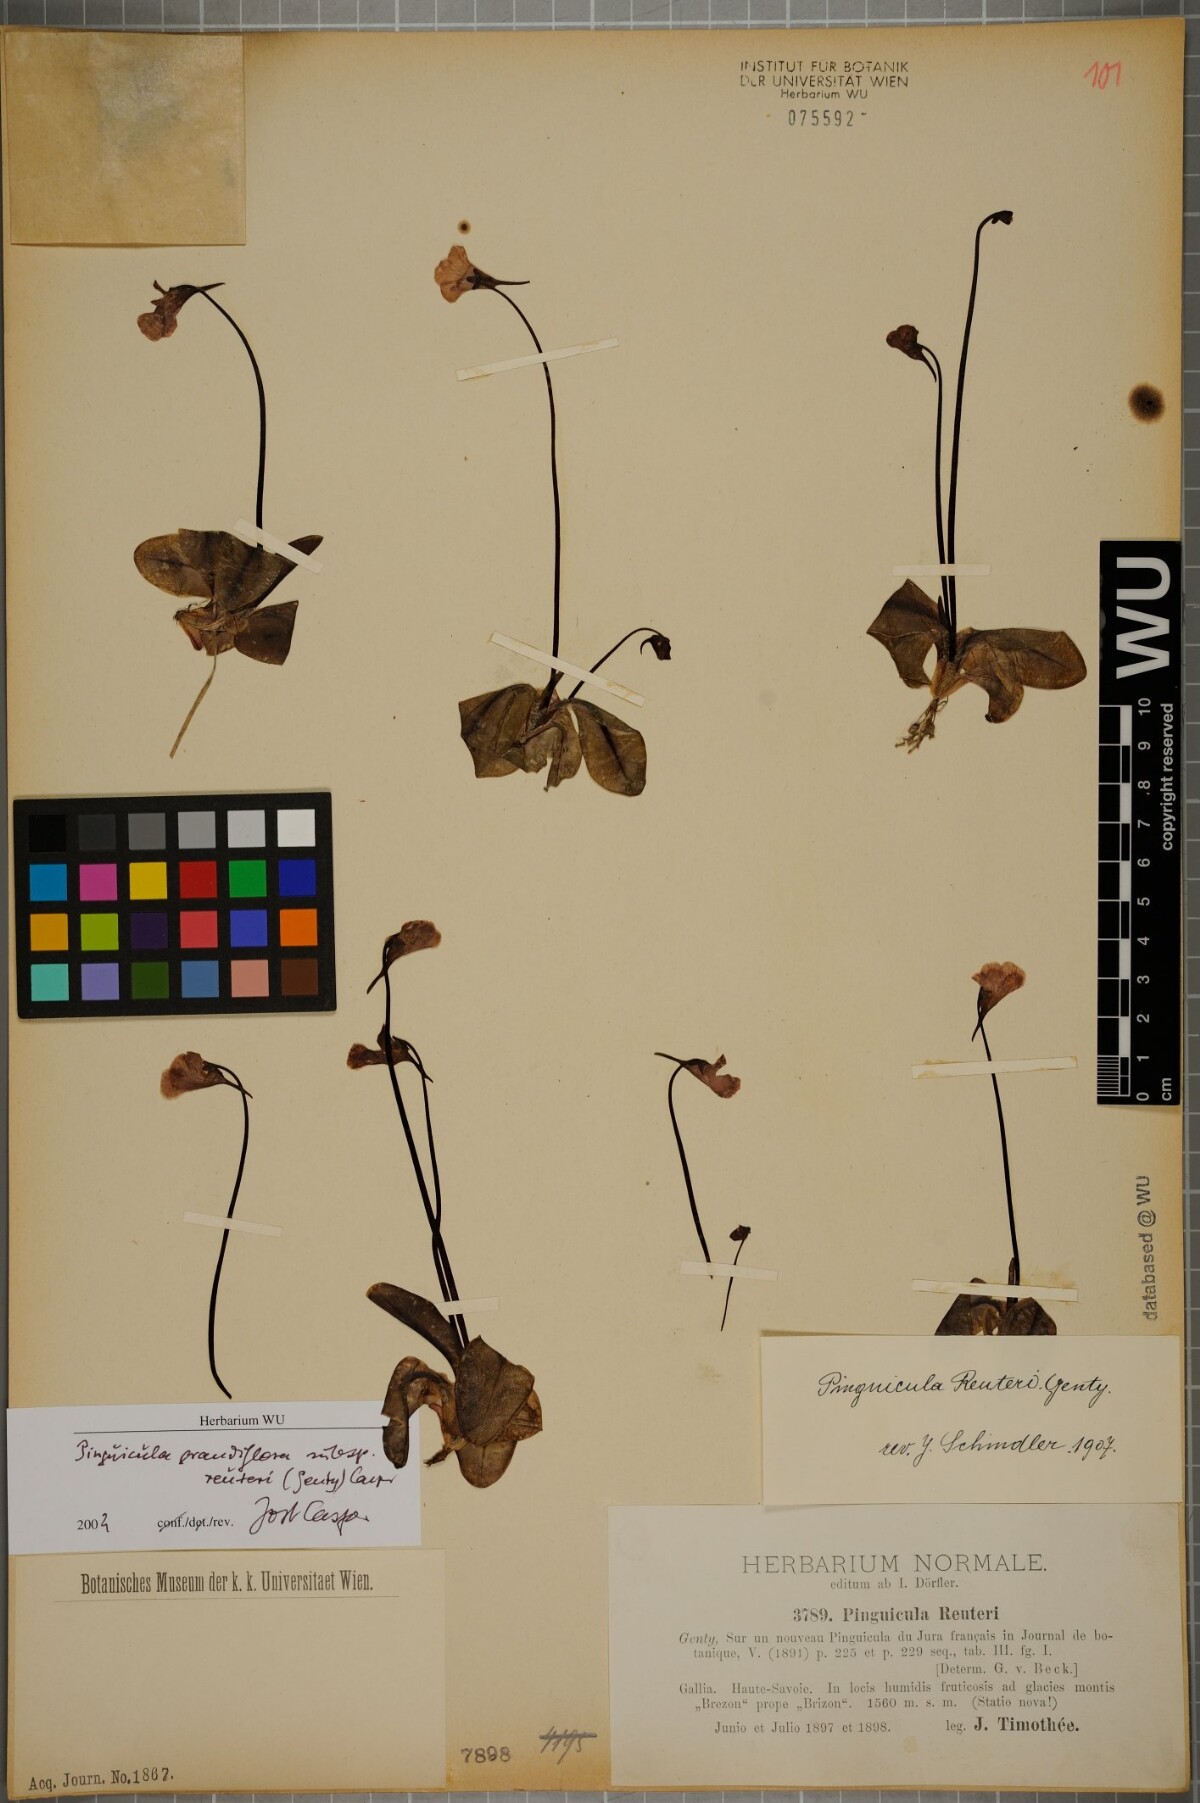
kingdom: Plantae
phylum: Tracheophyta
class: Magnoliopsida
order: Lamiales
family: Lentibulariaceae
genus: Pinguicula
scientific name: Pinguicula grandiflora
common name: Large-flowered butterwort
